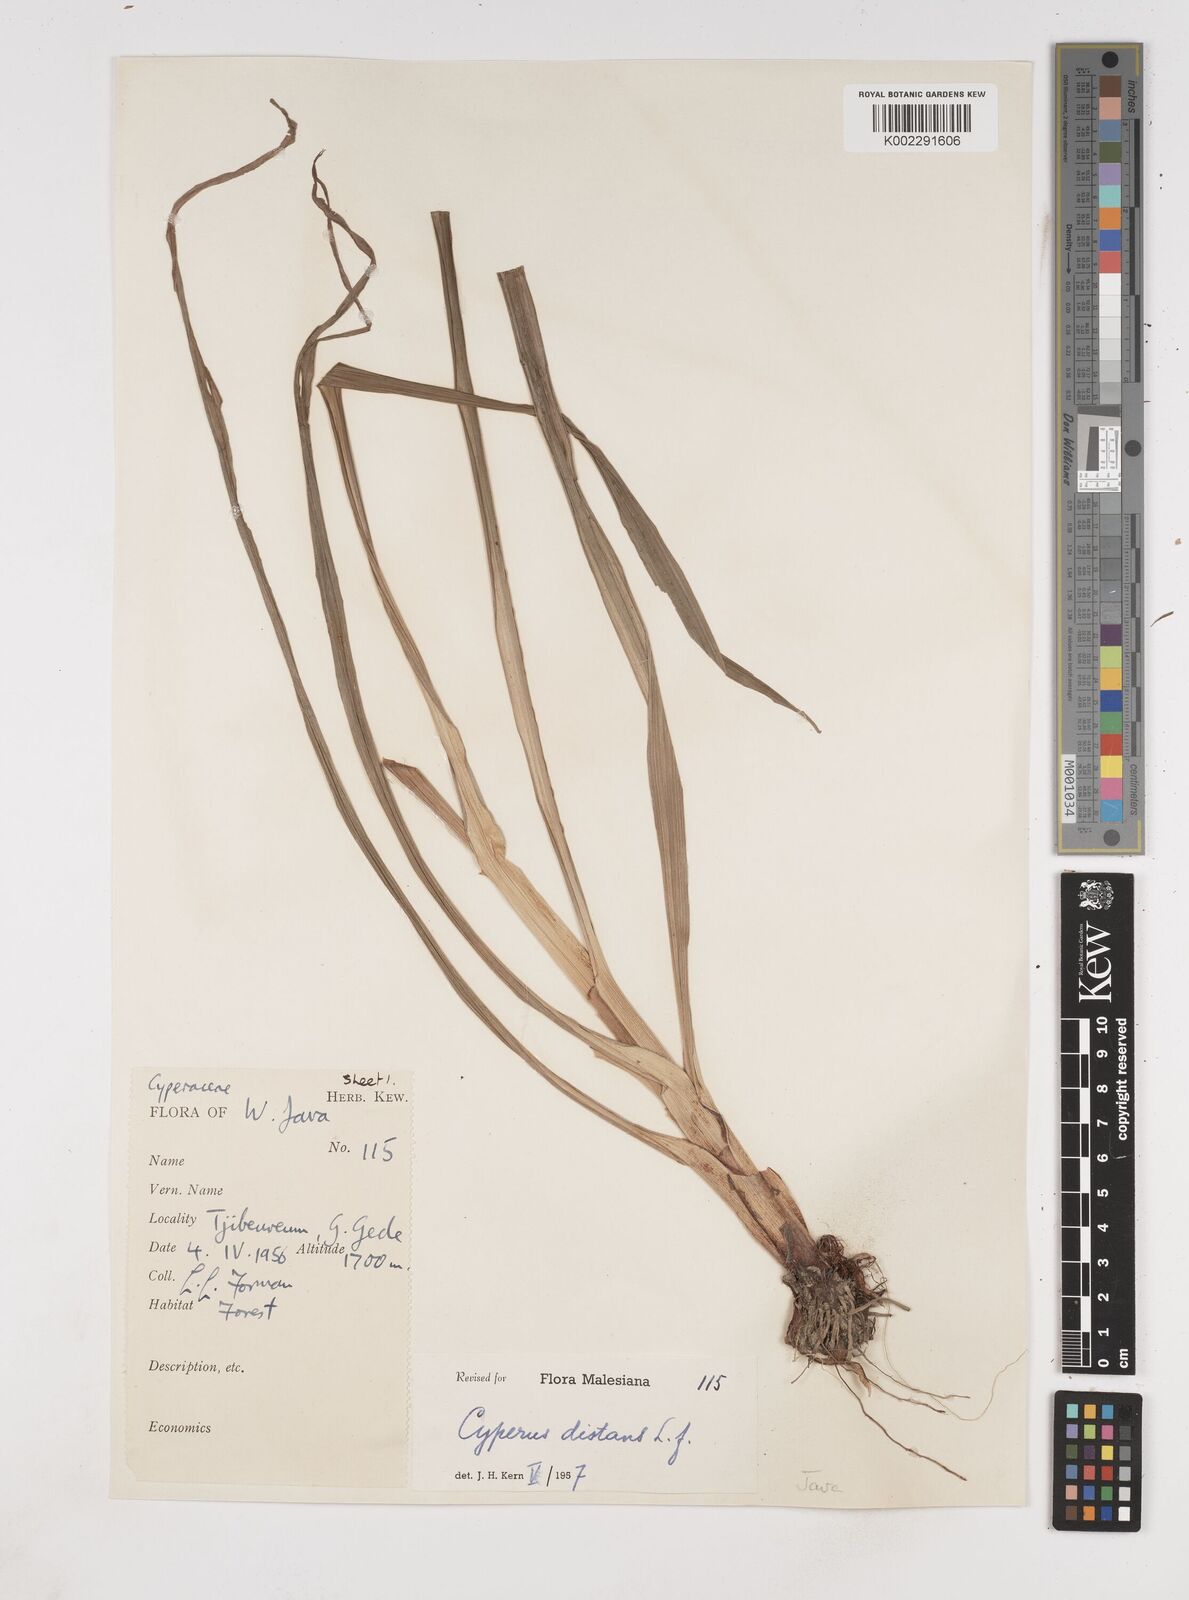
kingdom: Plantae
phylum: Tracheophyta
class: Liliopsida
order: Poales
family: Cyperaceae
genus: Cyperus
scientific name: Cyperus distans
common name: Slender cyperus
